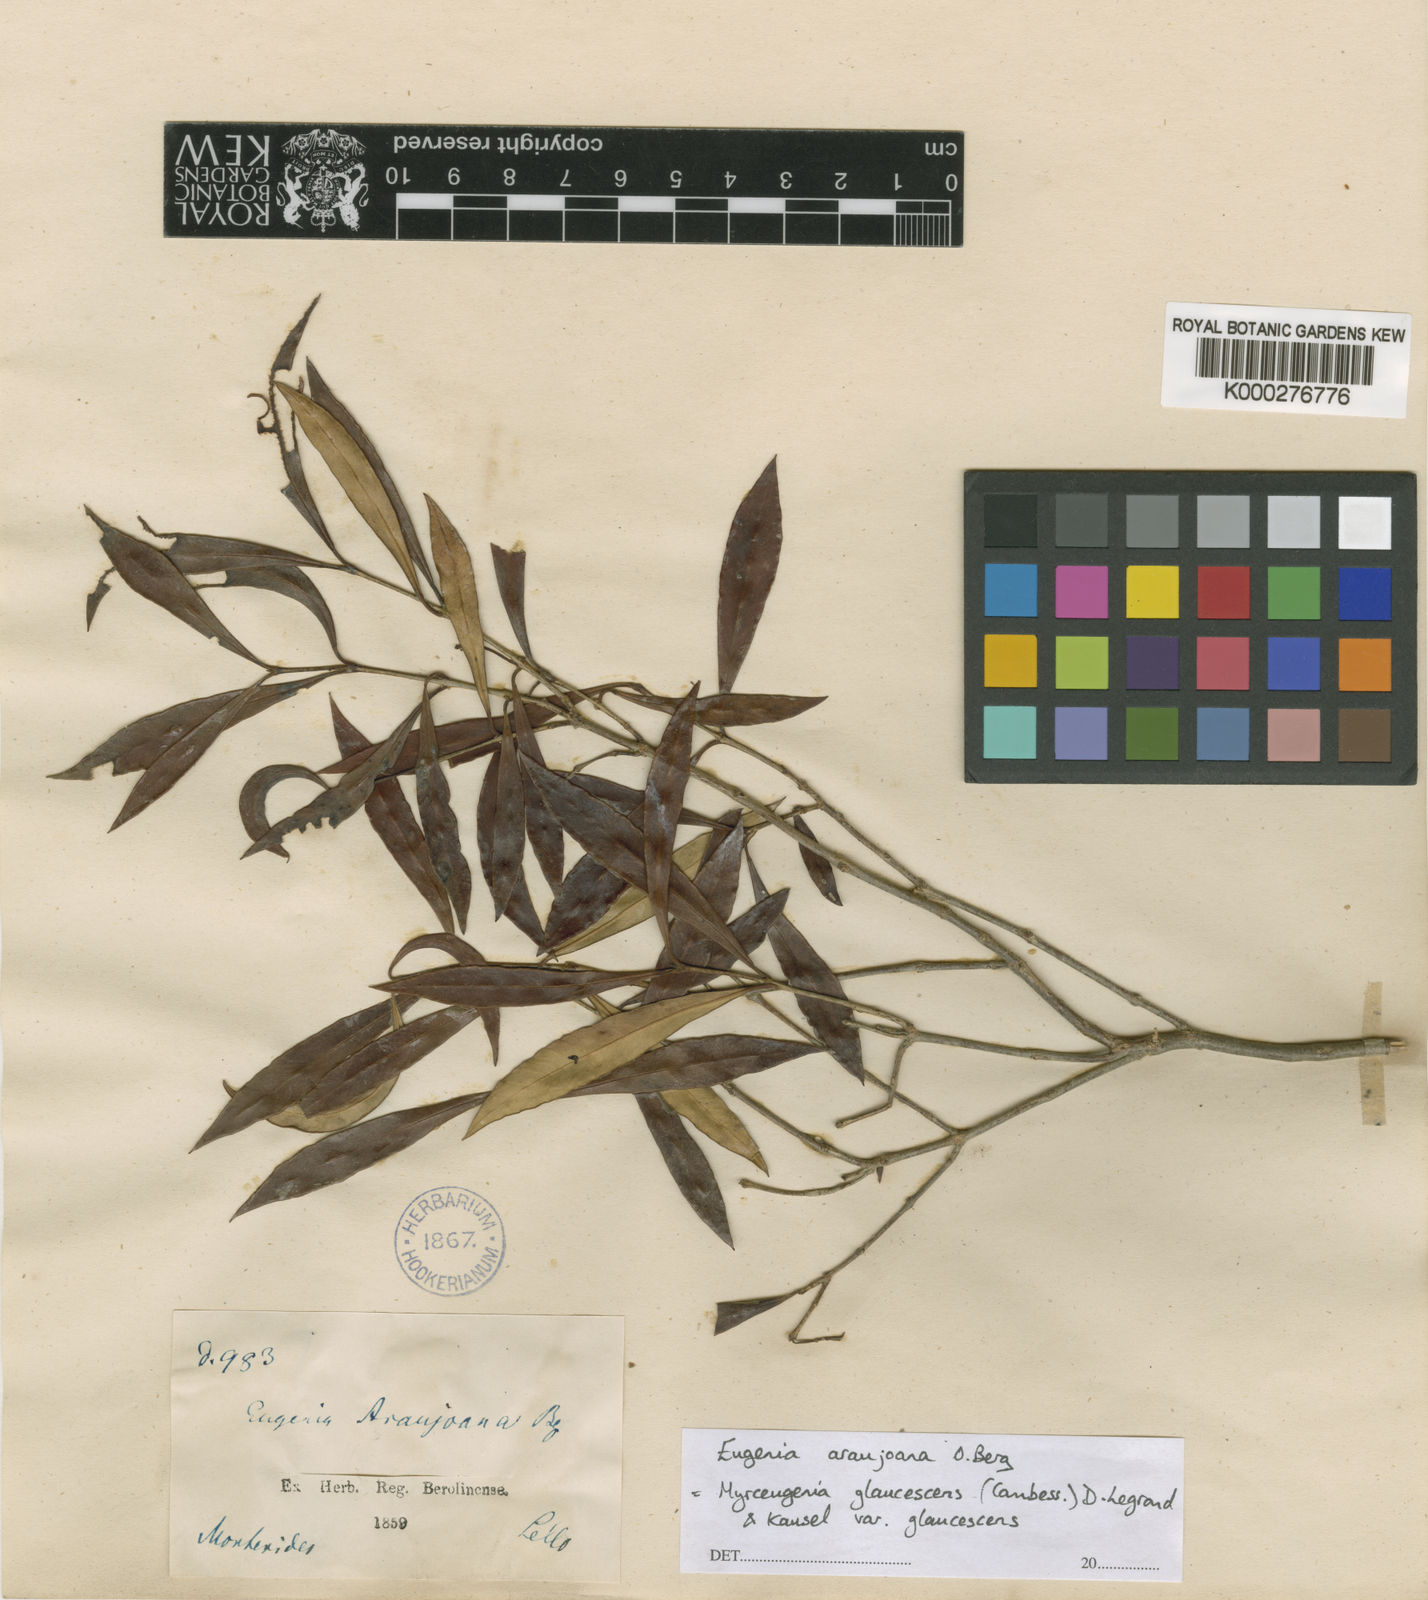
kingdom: Plantae
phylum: Tracheophyta
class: Magnoliopsida
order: Myrtales
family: Myrtaceae
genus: Myrceugenia
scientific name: Myrceugenia glaucescens
